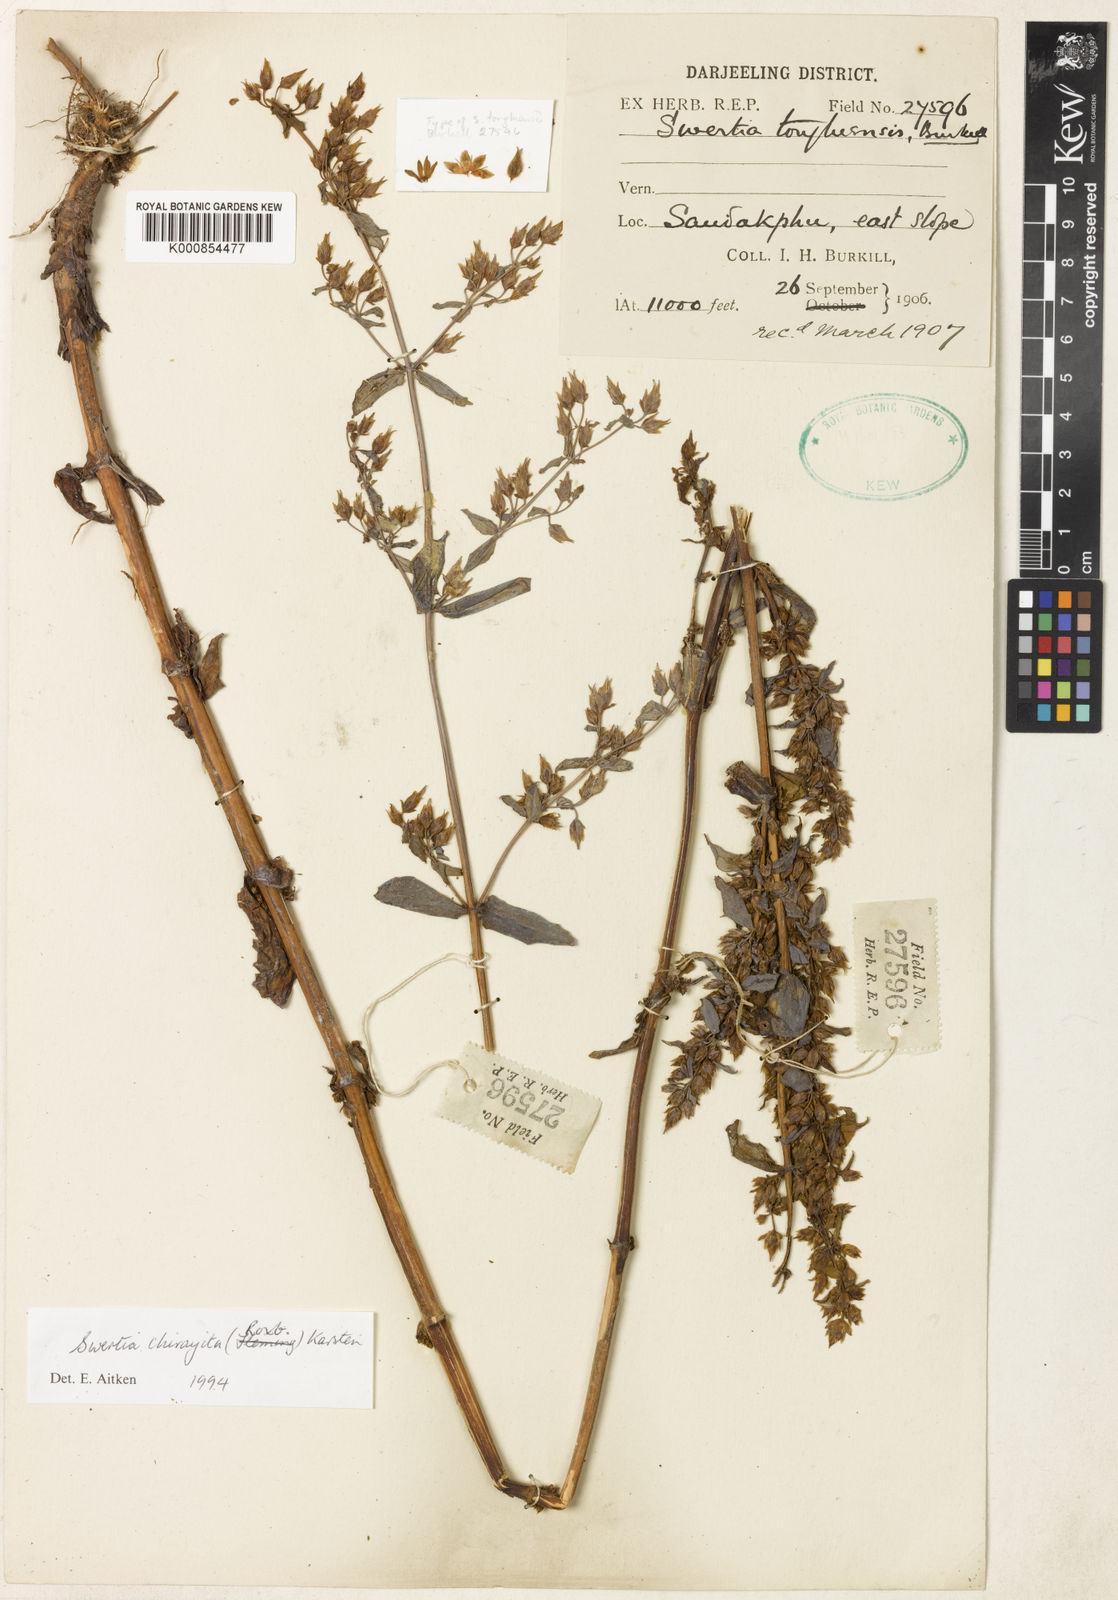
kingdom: Plantae
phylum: Tracheophyta
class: Magnoliopsida
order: Gentianales
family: Gentianaceae
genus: Swertia
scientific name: Swertia chirayita
